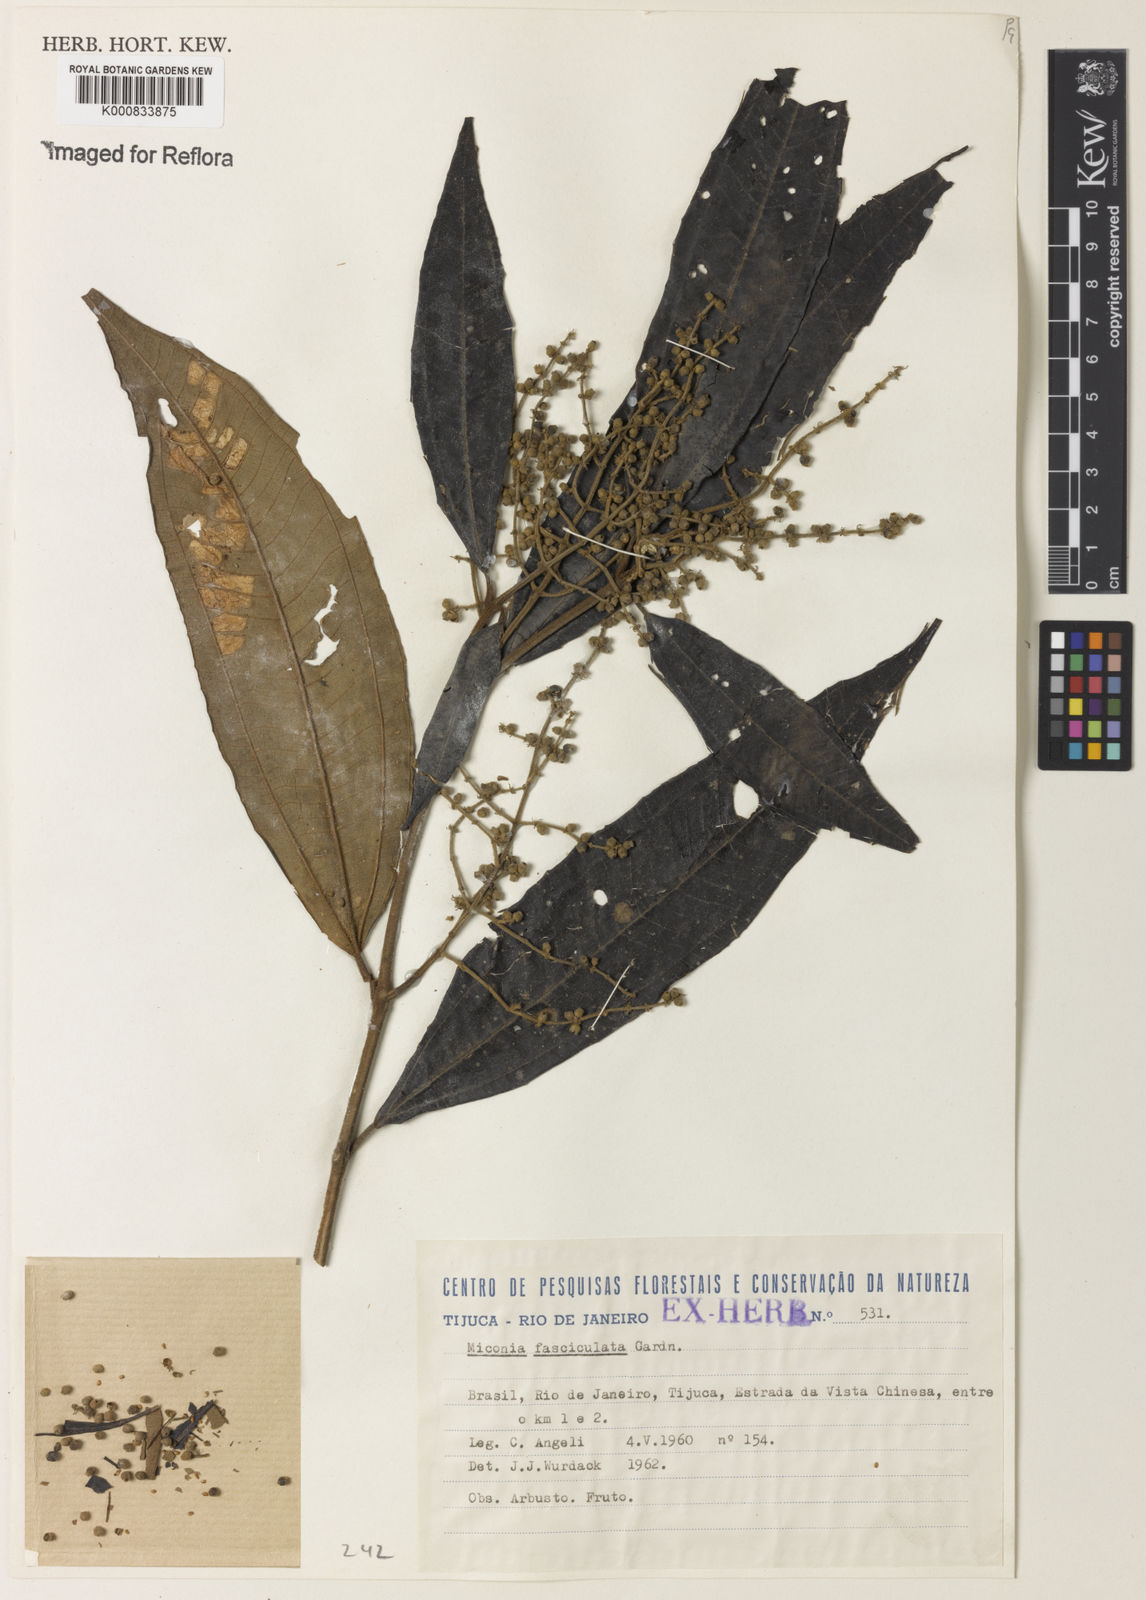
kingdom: Plantae
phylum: Tracheophyta
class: Magnoliopsida
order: Myrtales
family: Melastomataceae
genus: Miconia
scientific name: Miconia fasciculata
